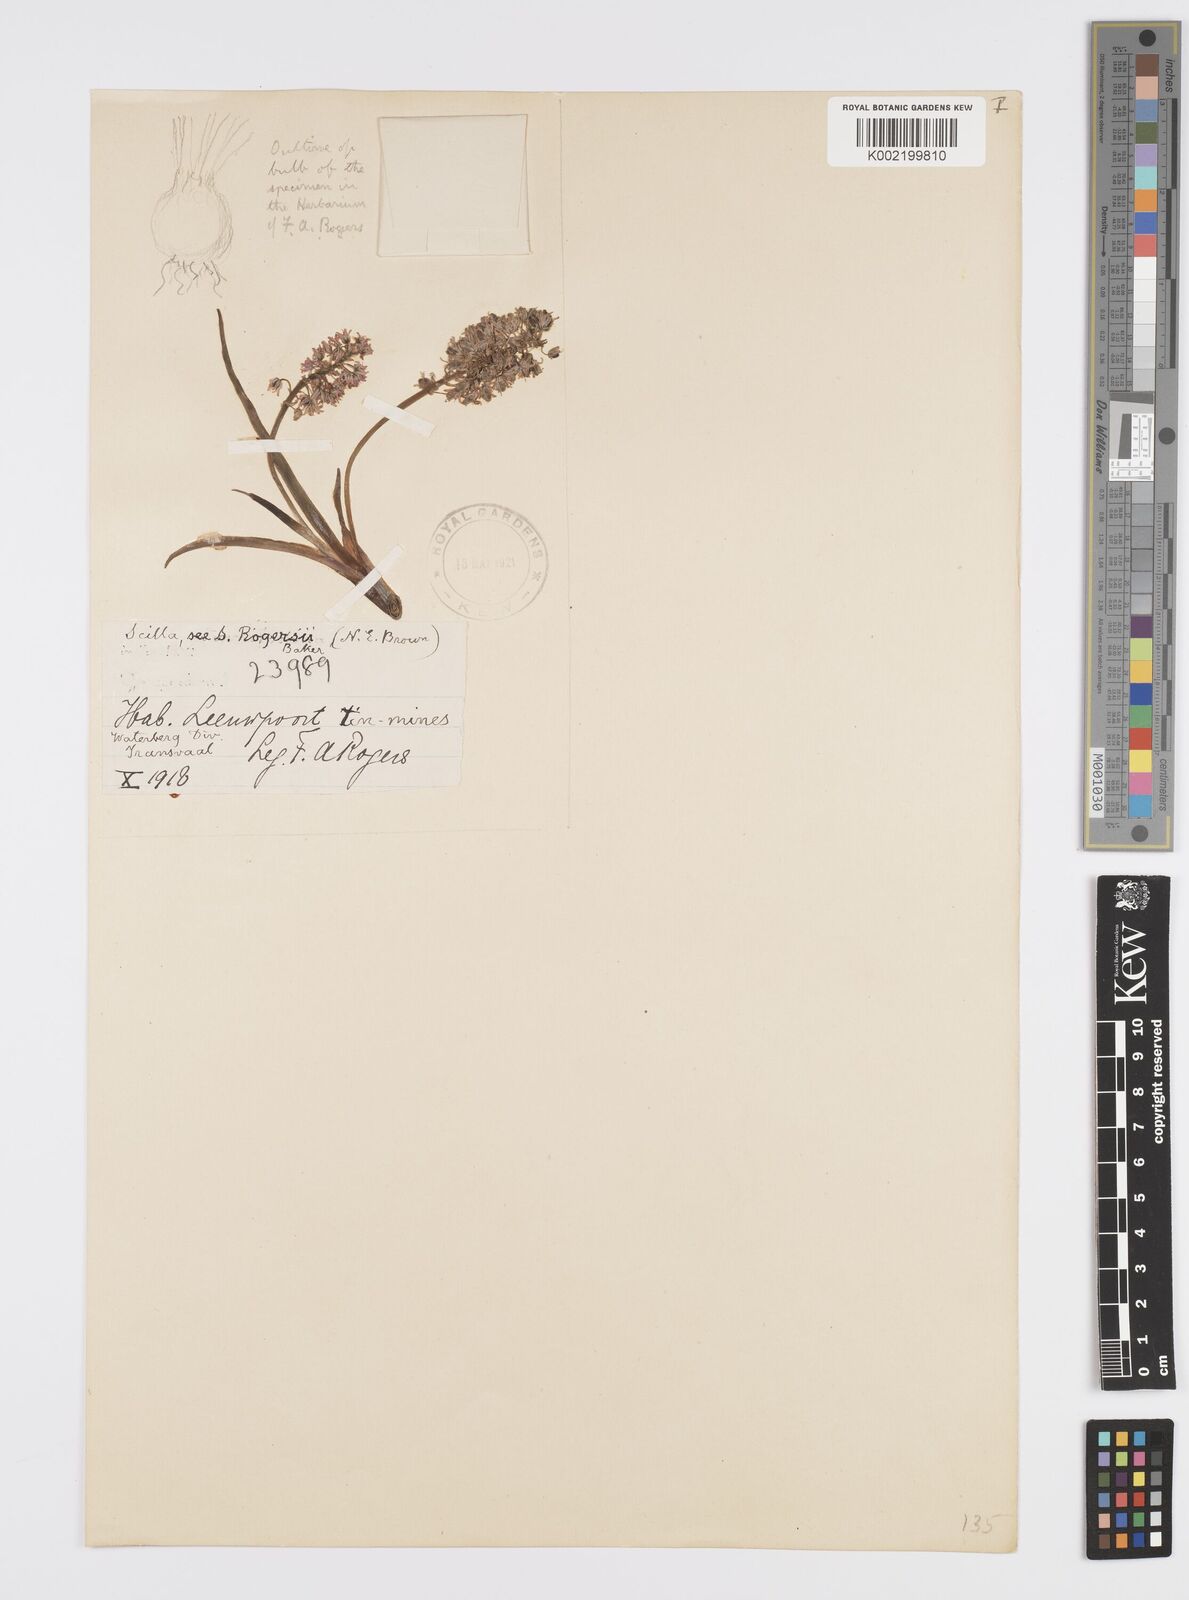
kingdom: Plantae
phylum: Tracheophyta
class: Liliopsida
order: Asparagales
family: Asparagaceae
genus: Ledebouria
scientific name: Ledebouria cooperi
